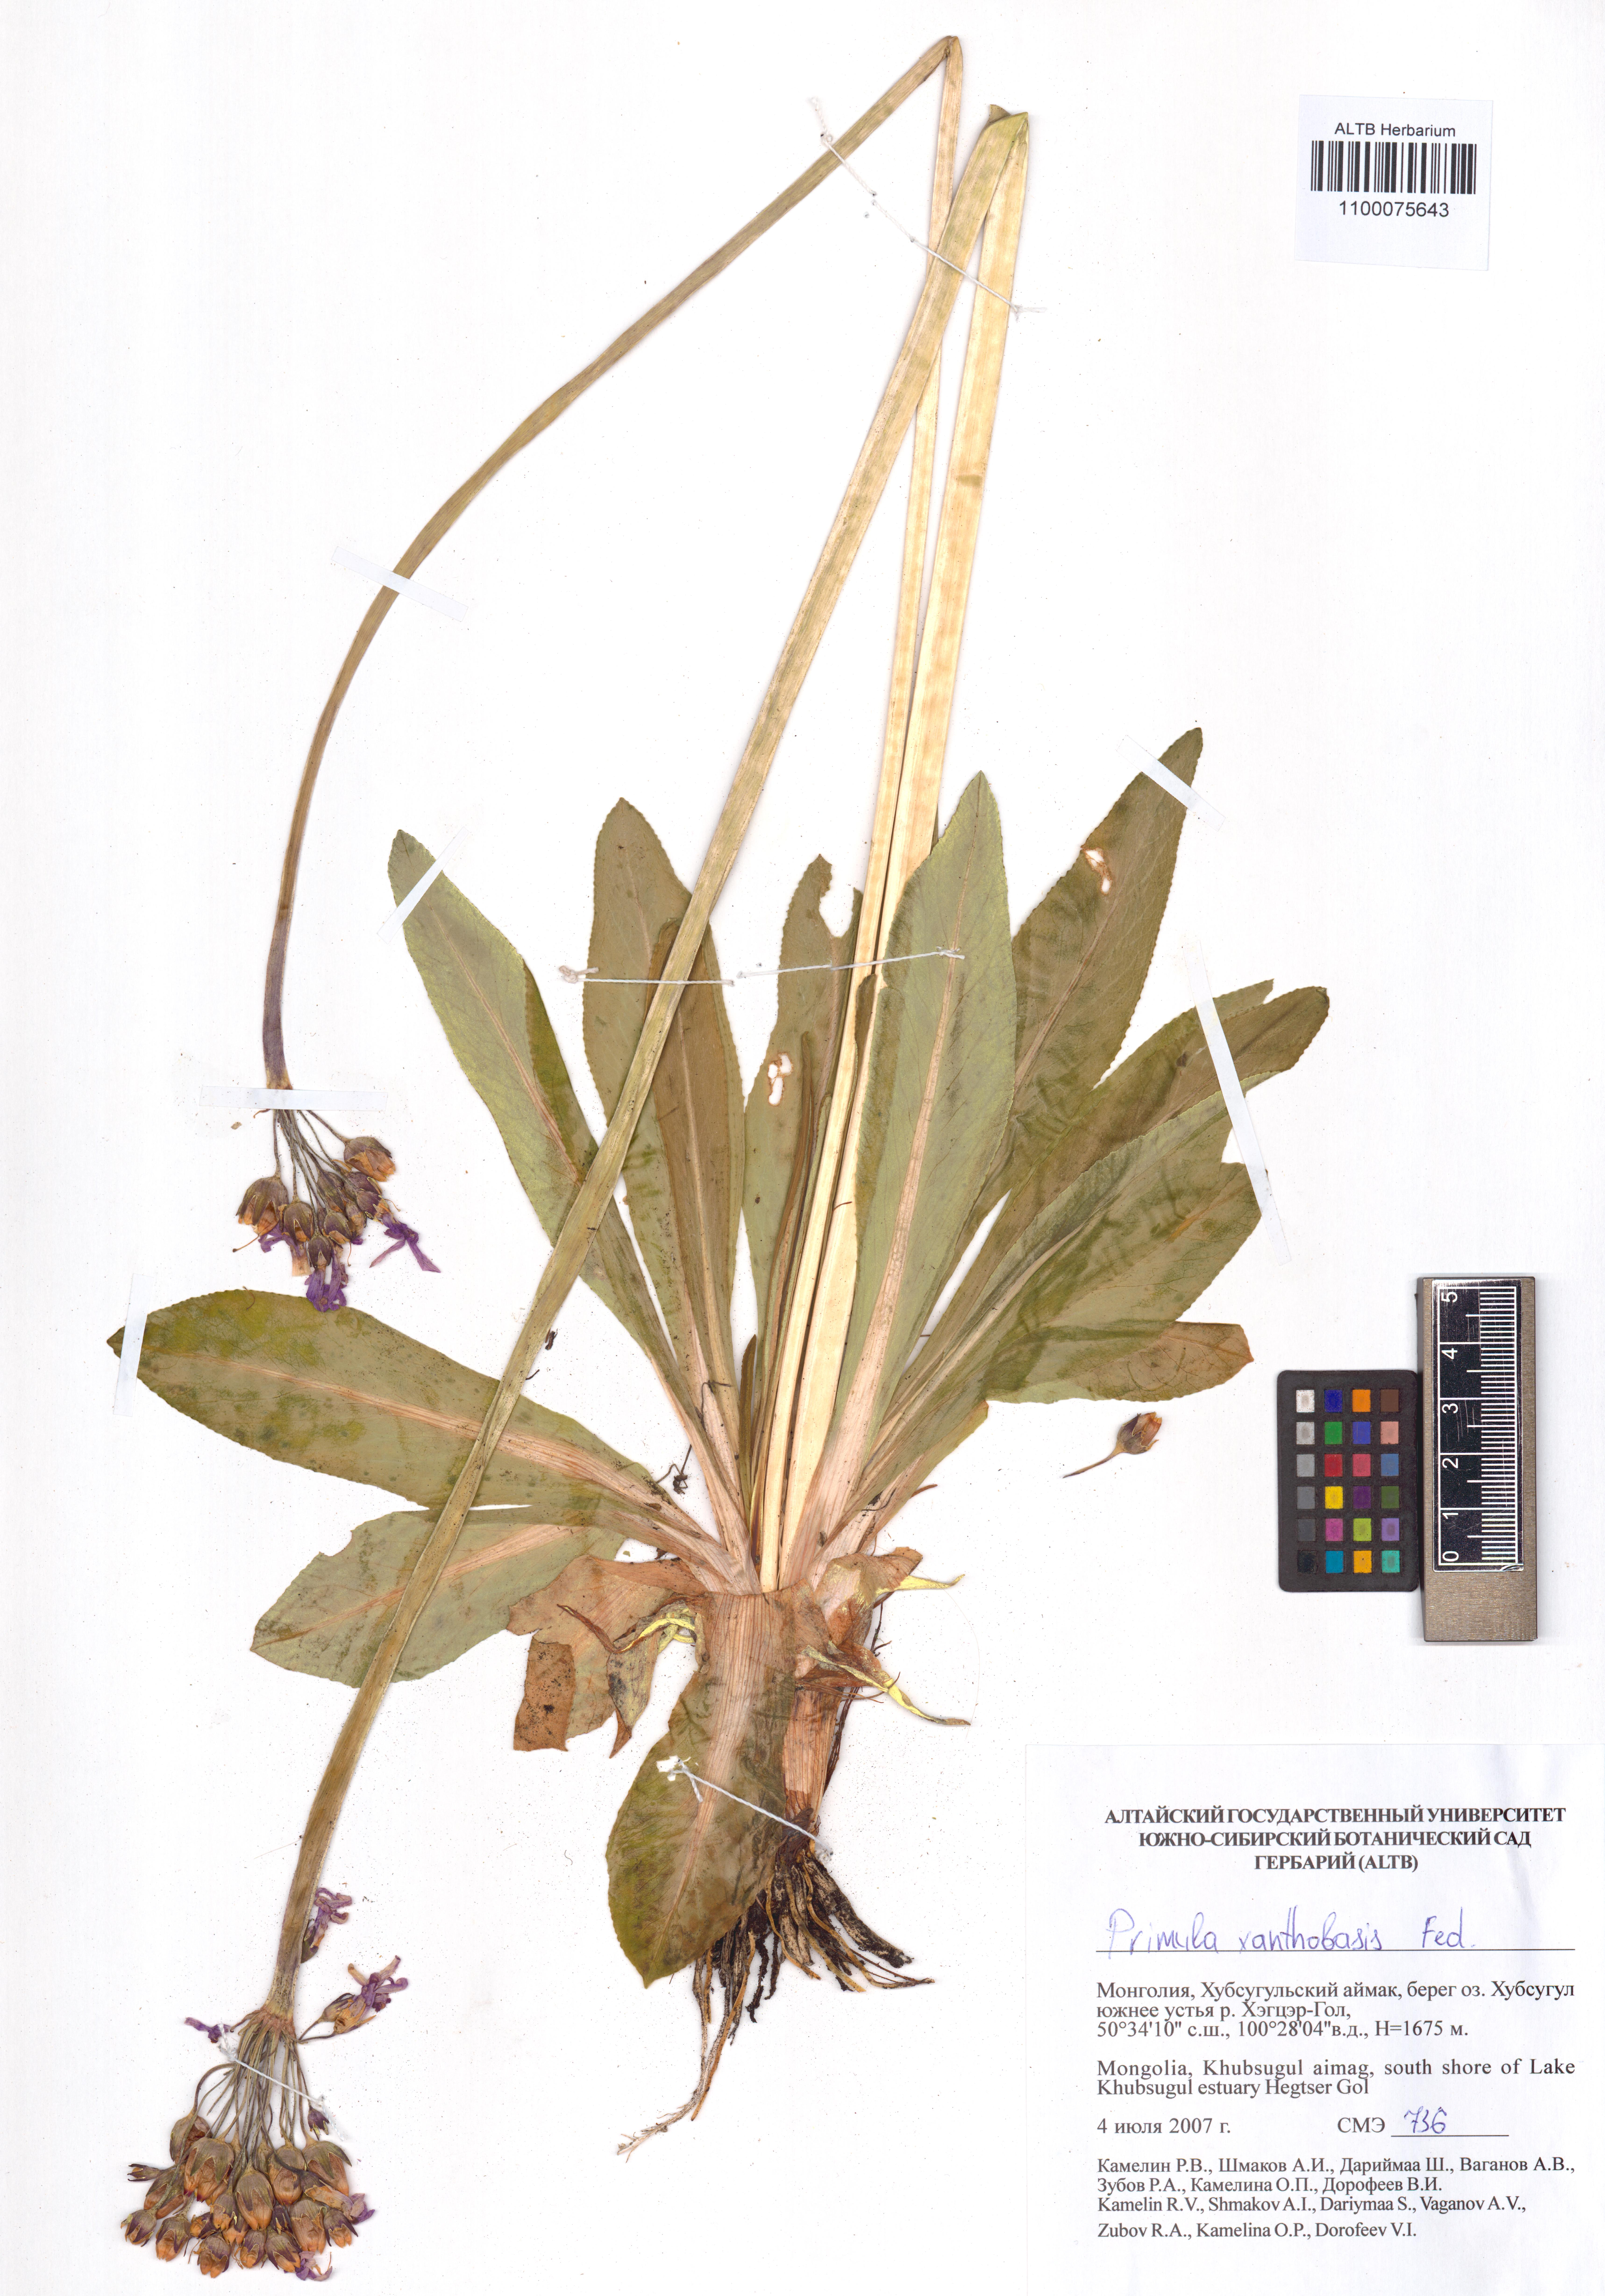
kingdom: Plantae
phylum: Tracheophyta
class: Magnoliopsida
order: Ericales
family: Primulaceae
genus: Primula
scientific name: Primula nivalis
